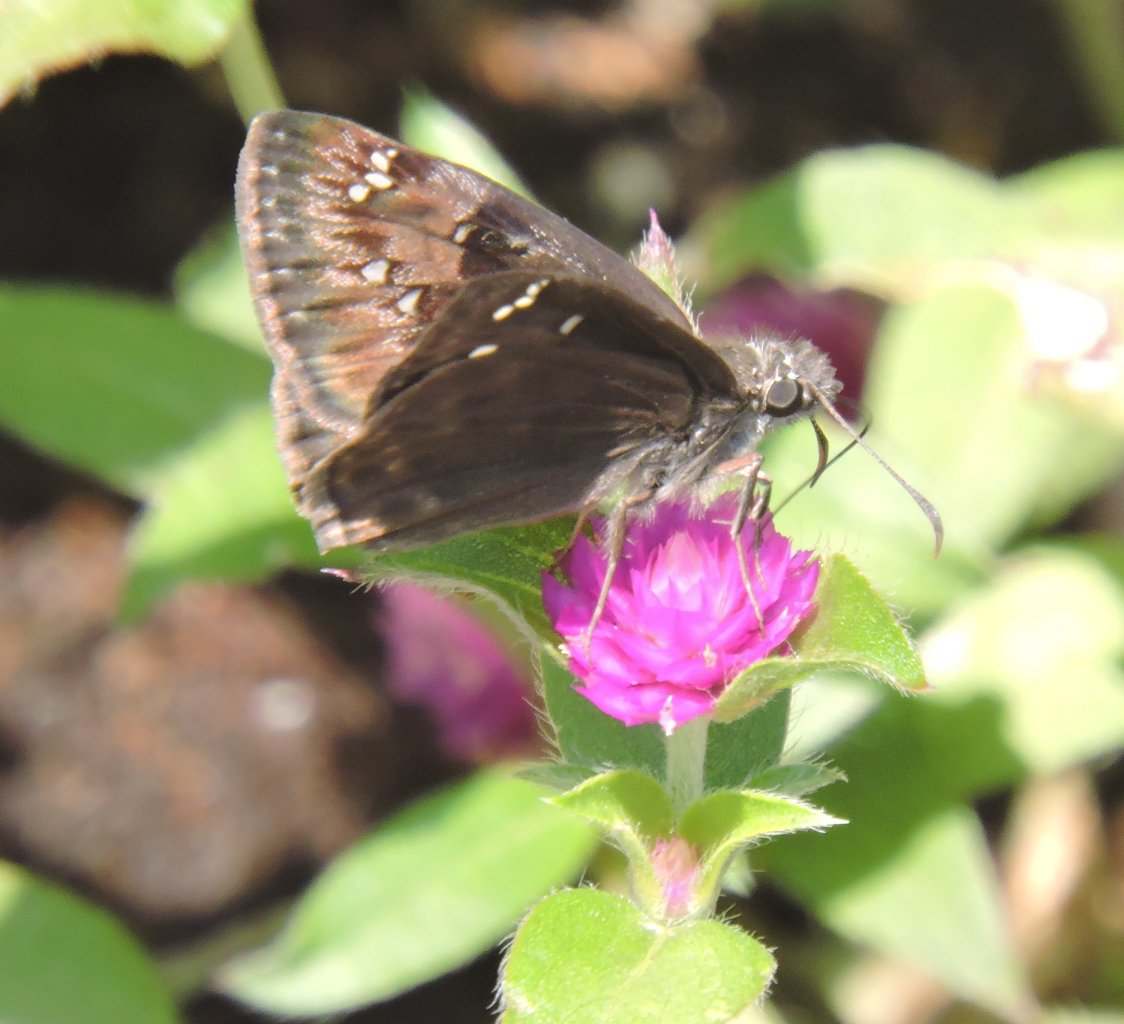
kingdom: Animalia
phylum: Arthropoda
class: Insecta
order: Lepidoptera
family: Hesperiidae
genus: Gesta
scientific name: Gesta
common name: Horace's Duskywing
